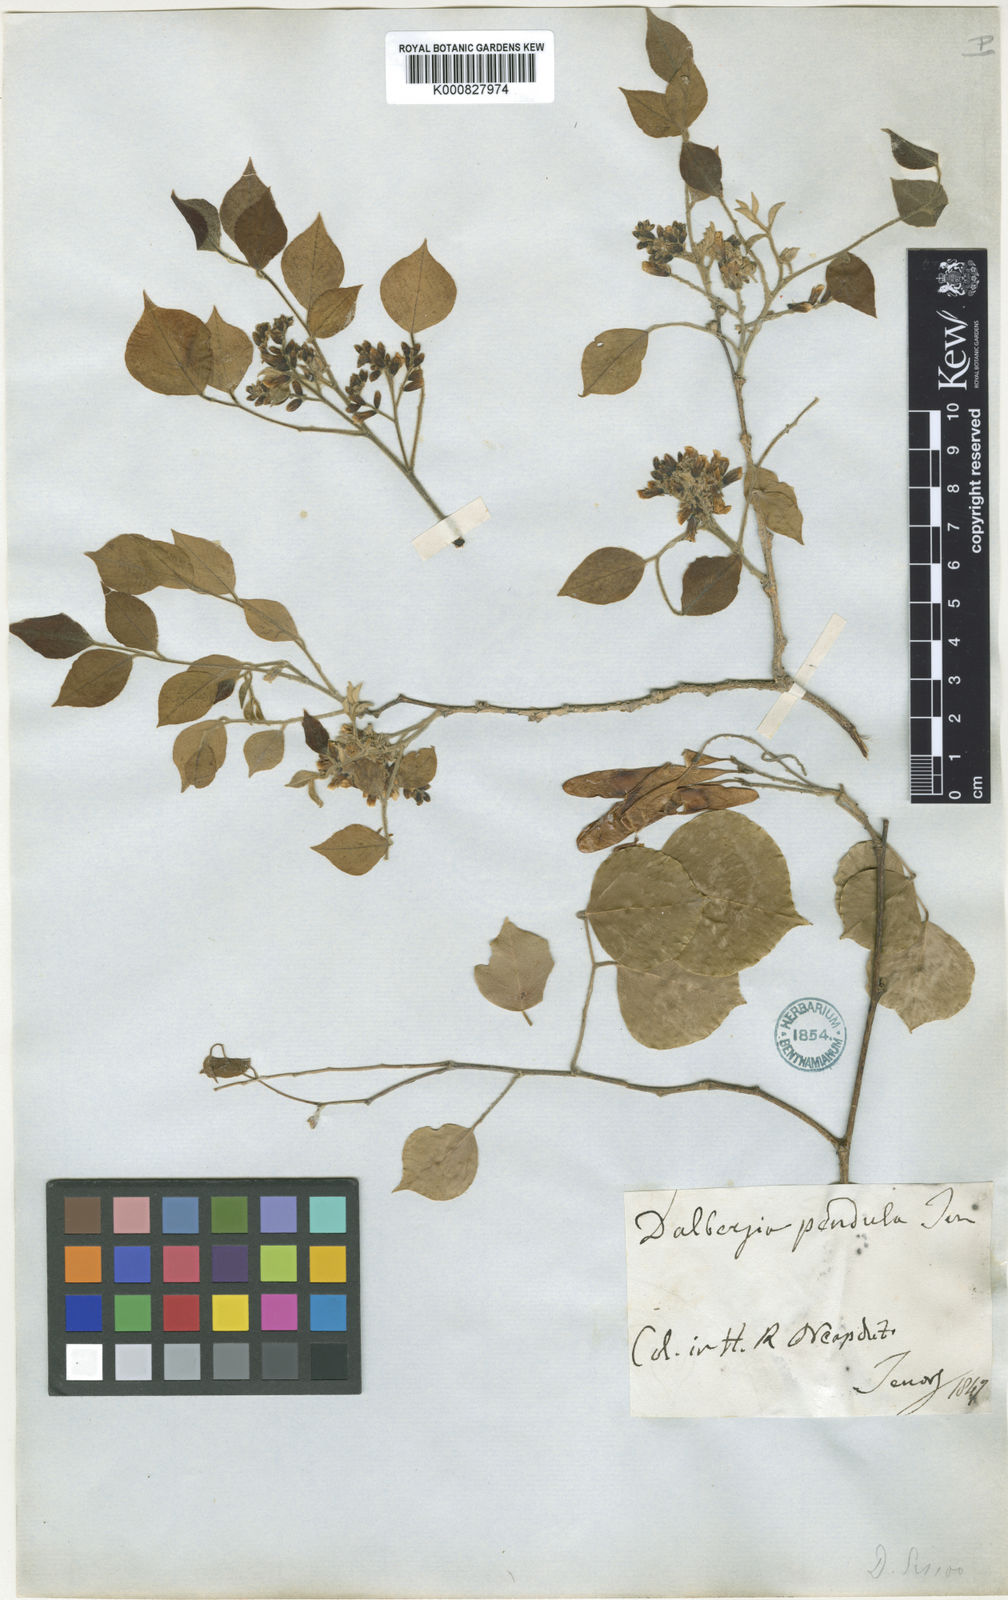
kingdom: Plantae
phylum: Tracheophyta
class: Magnoliopsida
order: Fabales
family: Fabaceae
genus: Dalbergia
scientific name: Dalbergia
